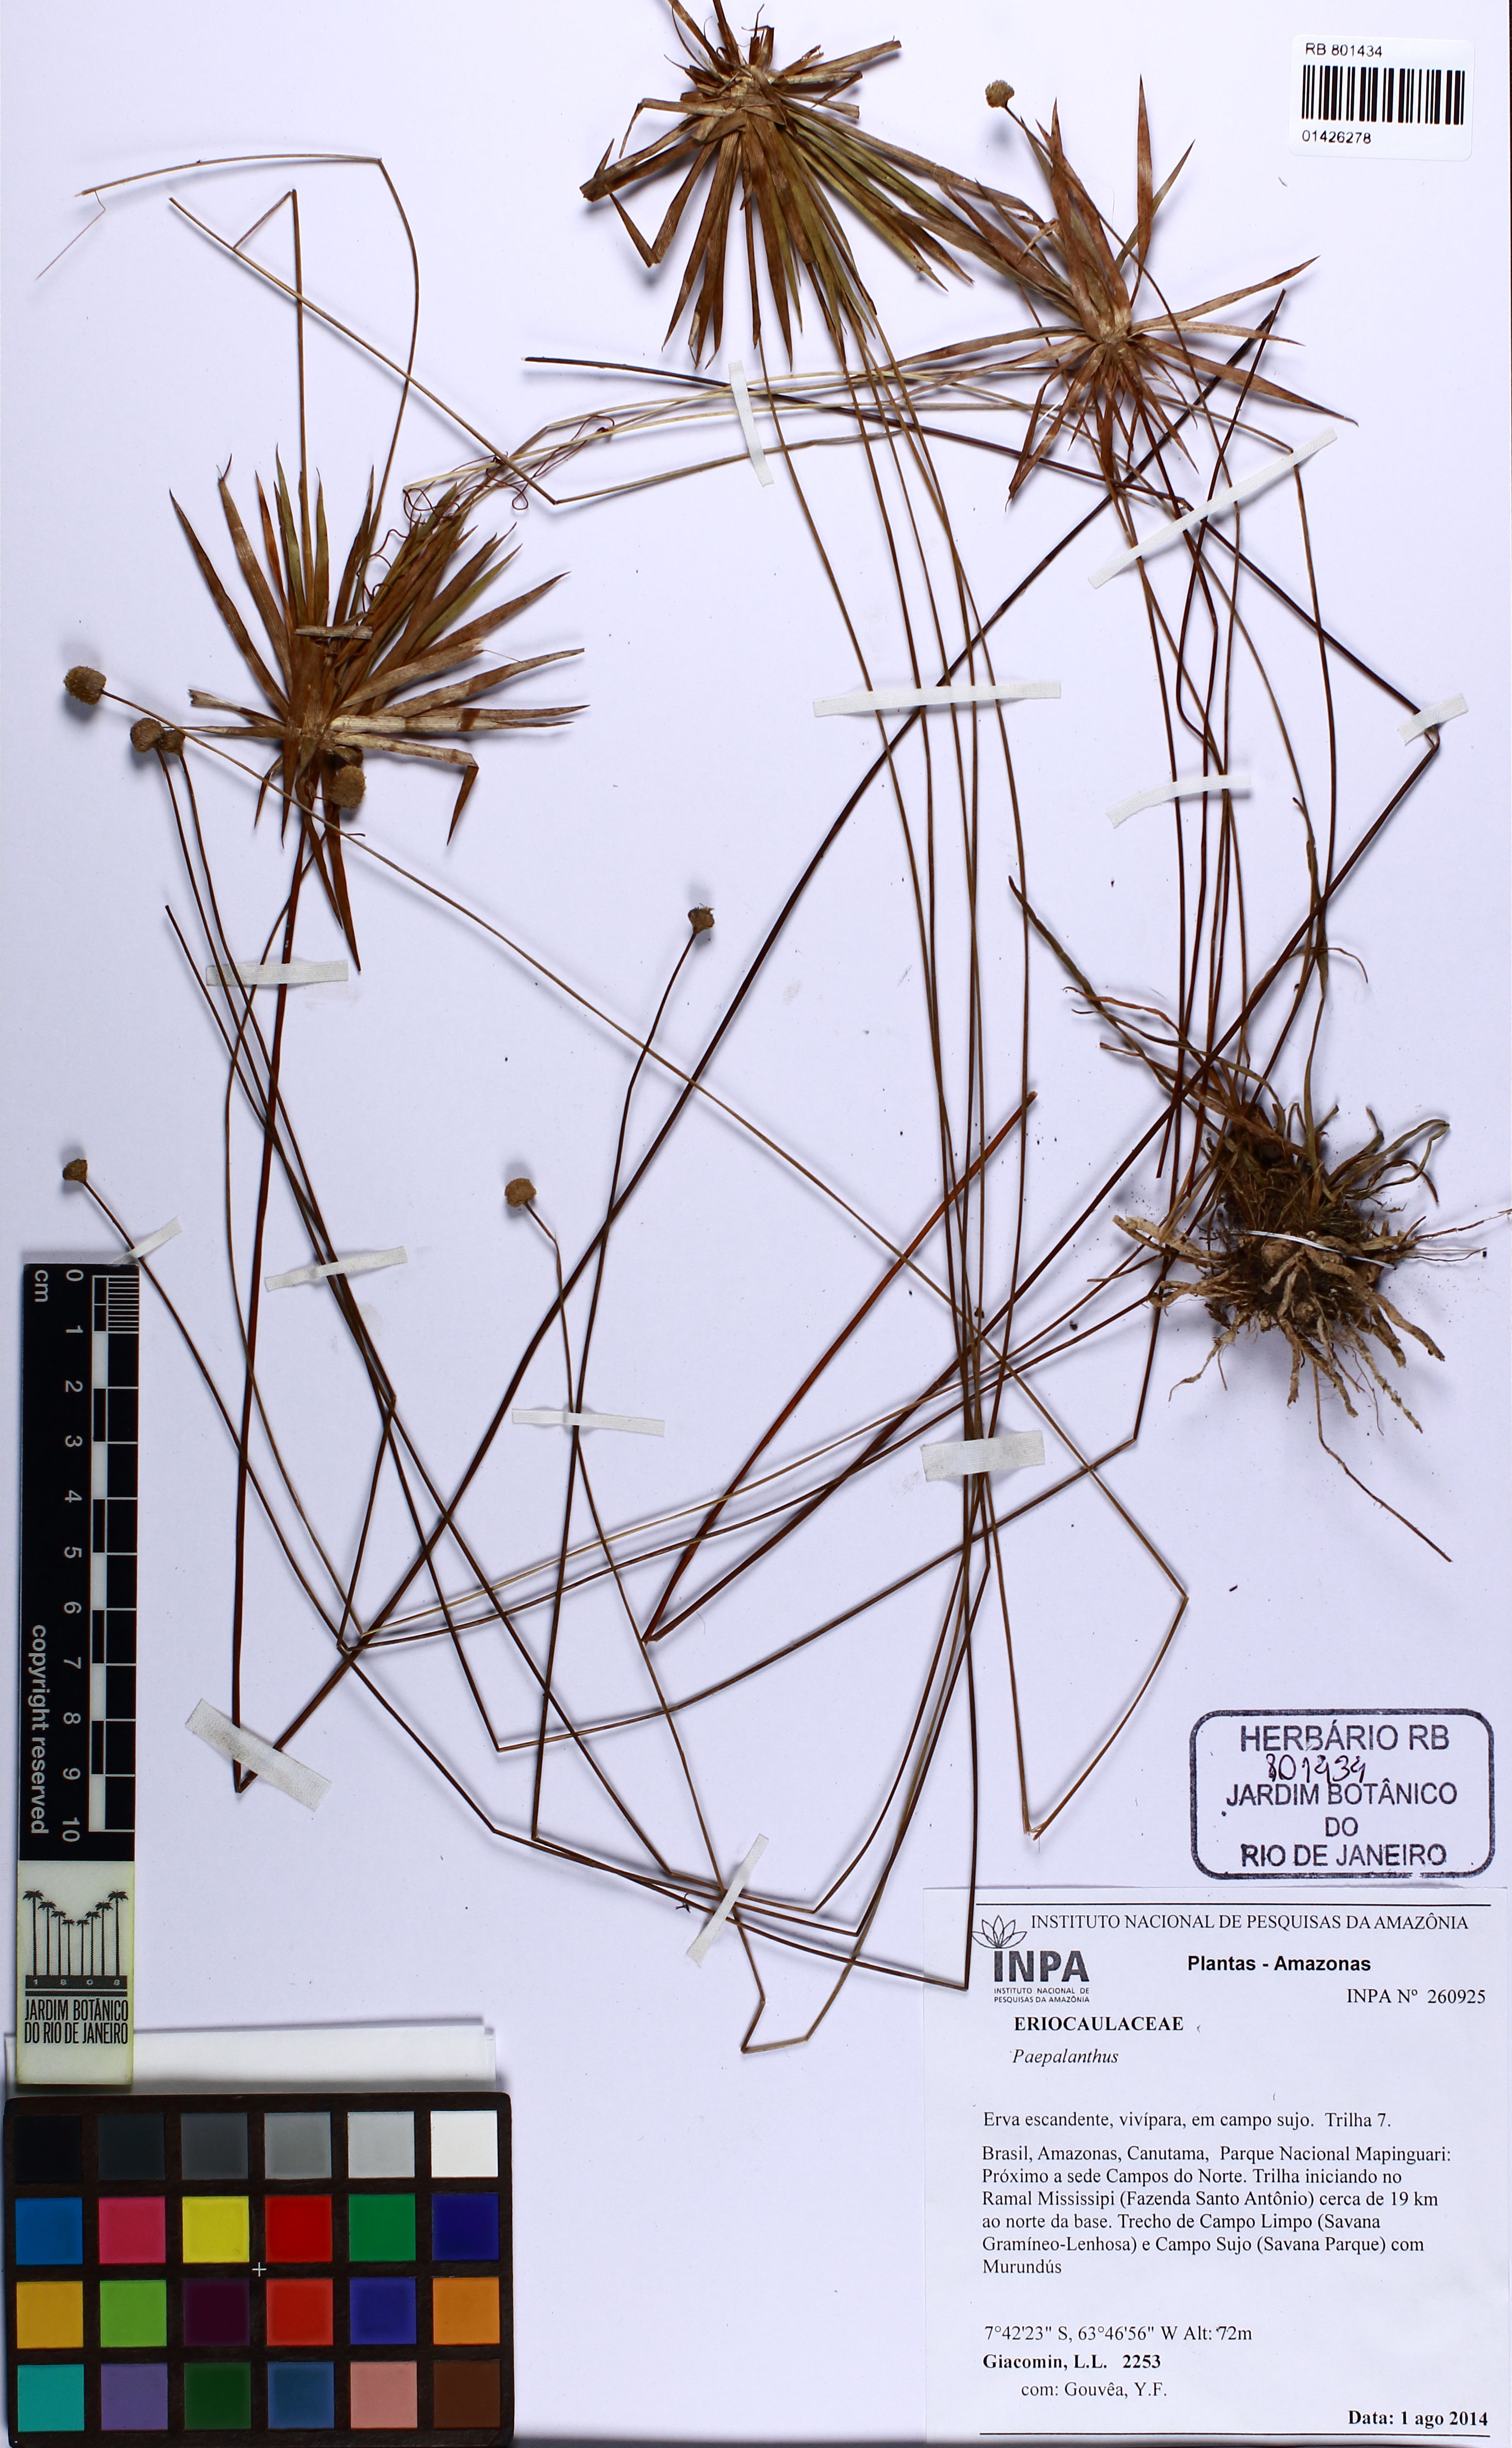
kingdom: Plantae
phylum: Tracheophyta
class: Liliopsida
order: Poales
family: Eriocaulaceae
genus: Syngonanthus
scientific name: Syngonanthus
